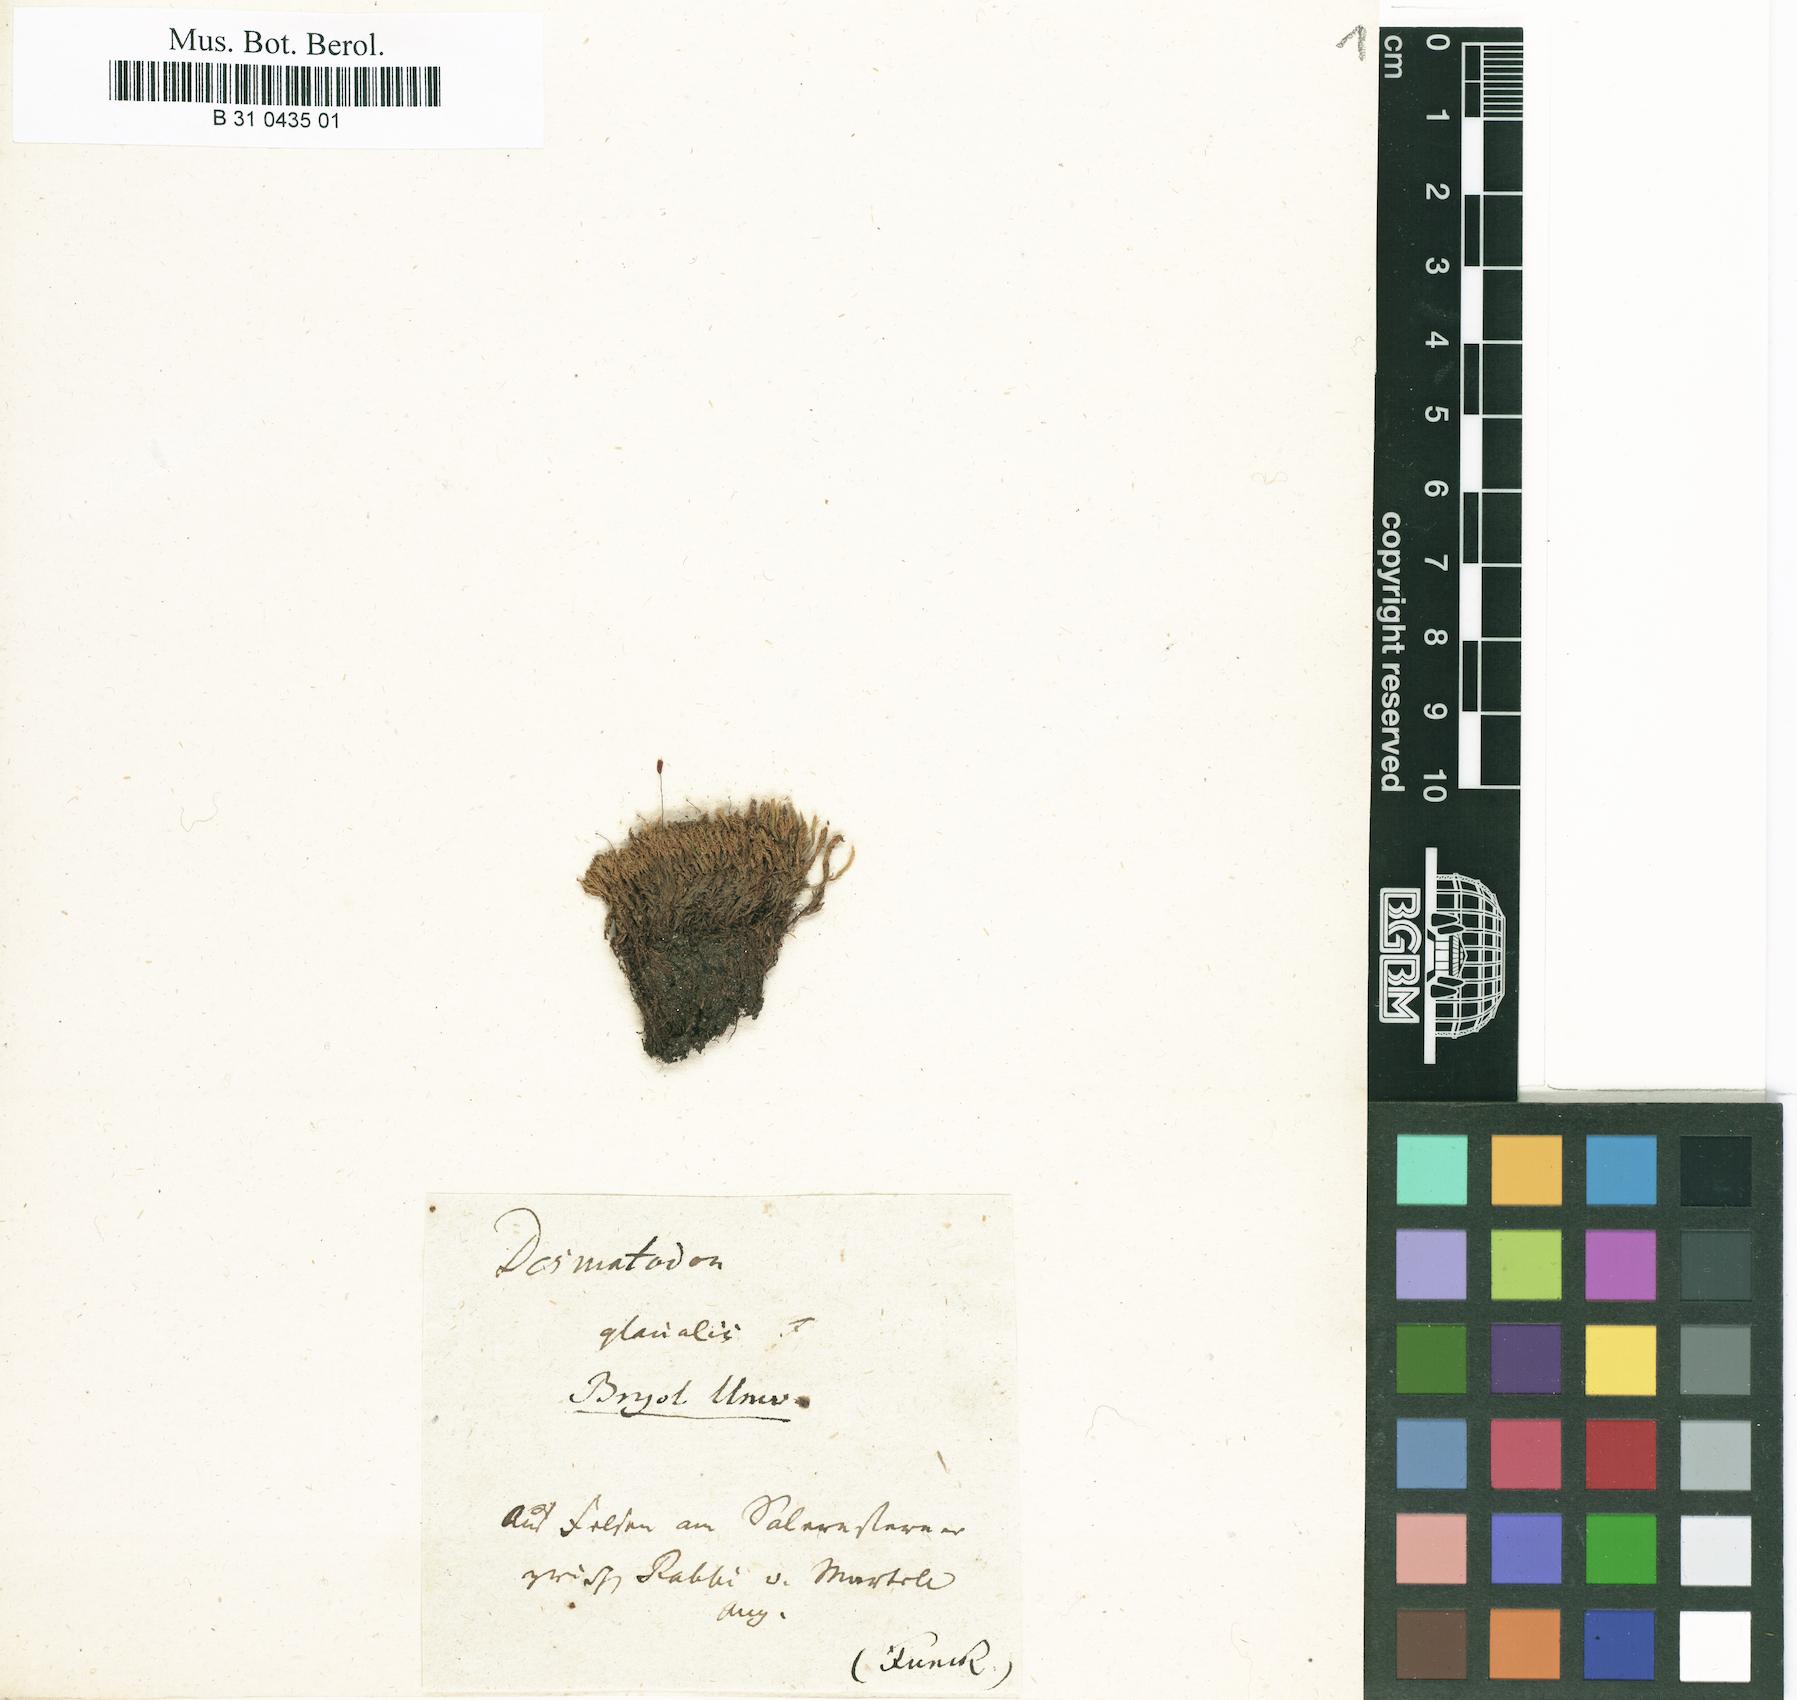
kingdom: Plantae
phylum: Bryophyta
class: Bryopsida
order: Pottiales
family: Pottiaceae
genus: Tortula
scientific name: Tortula hoppeana
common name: Hoppe's screw moss
